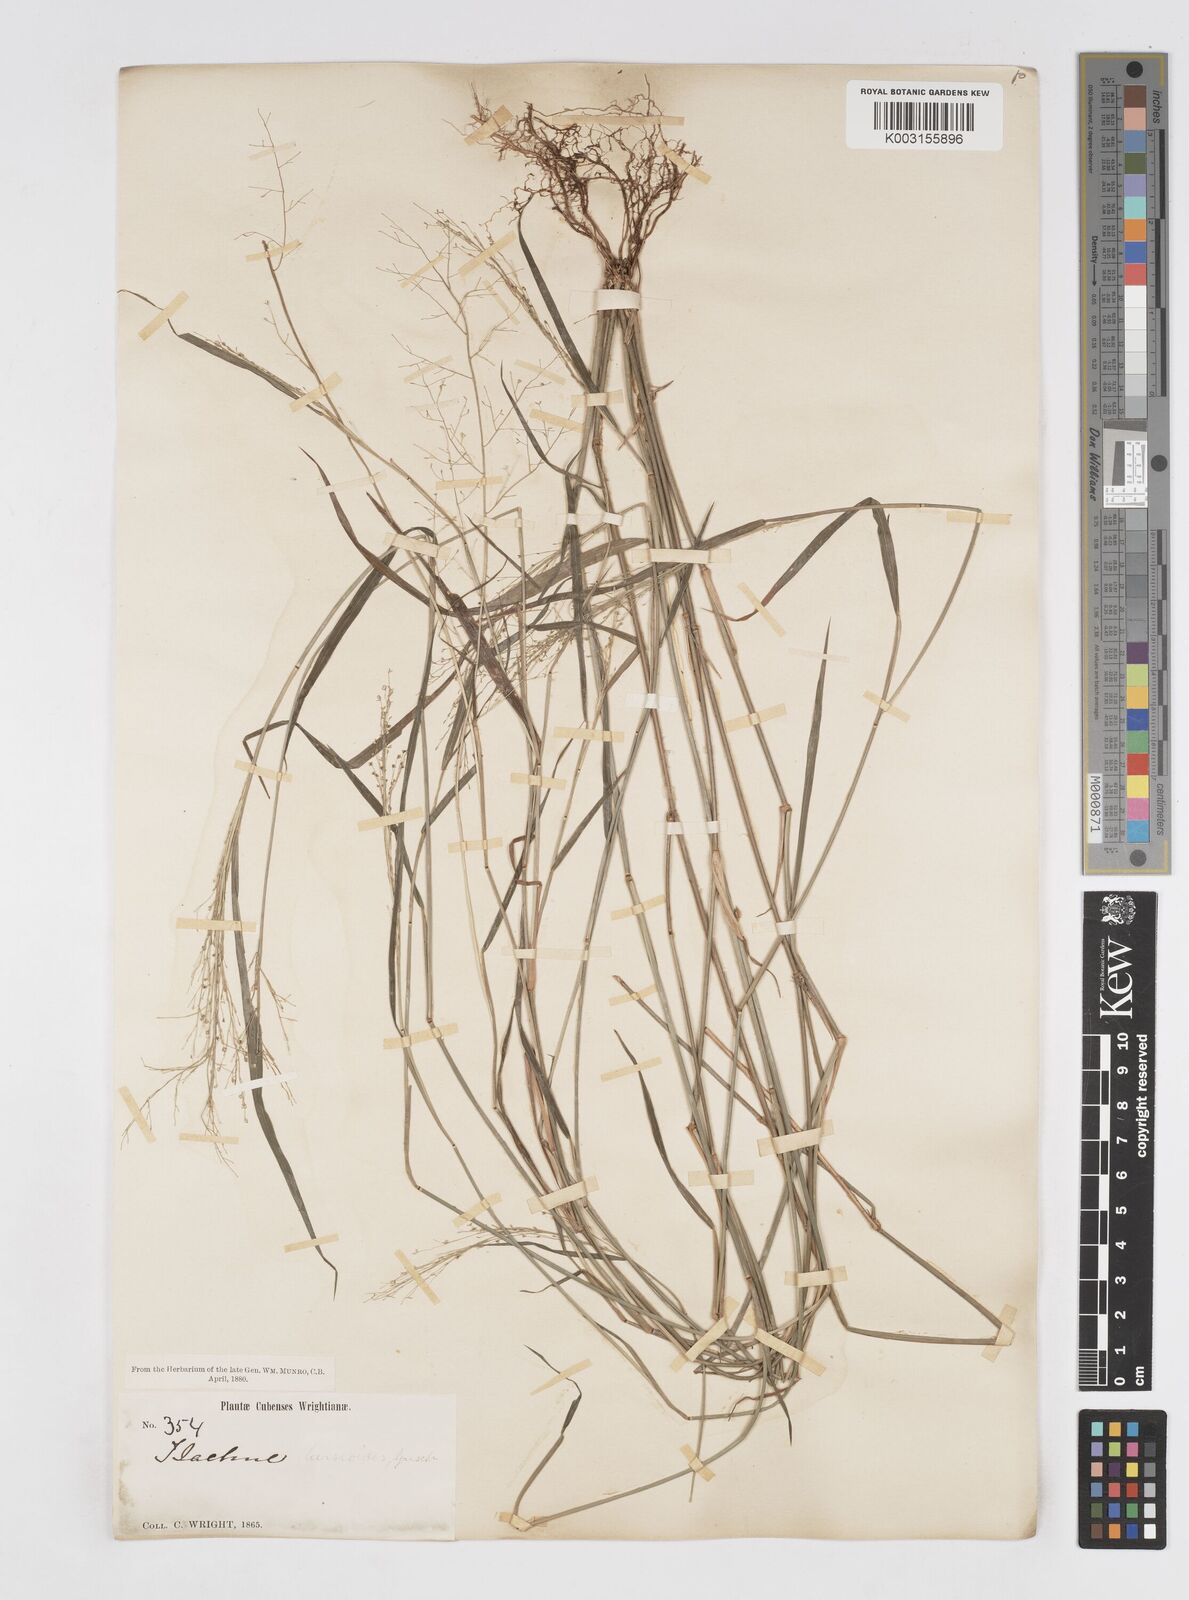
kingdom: Plantae
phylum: Tracheophyta
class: Liliopsida
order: Poales
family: Poaceae
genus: Isachne
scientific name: Isachne leersioides
